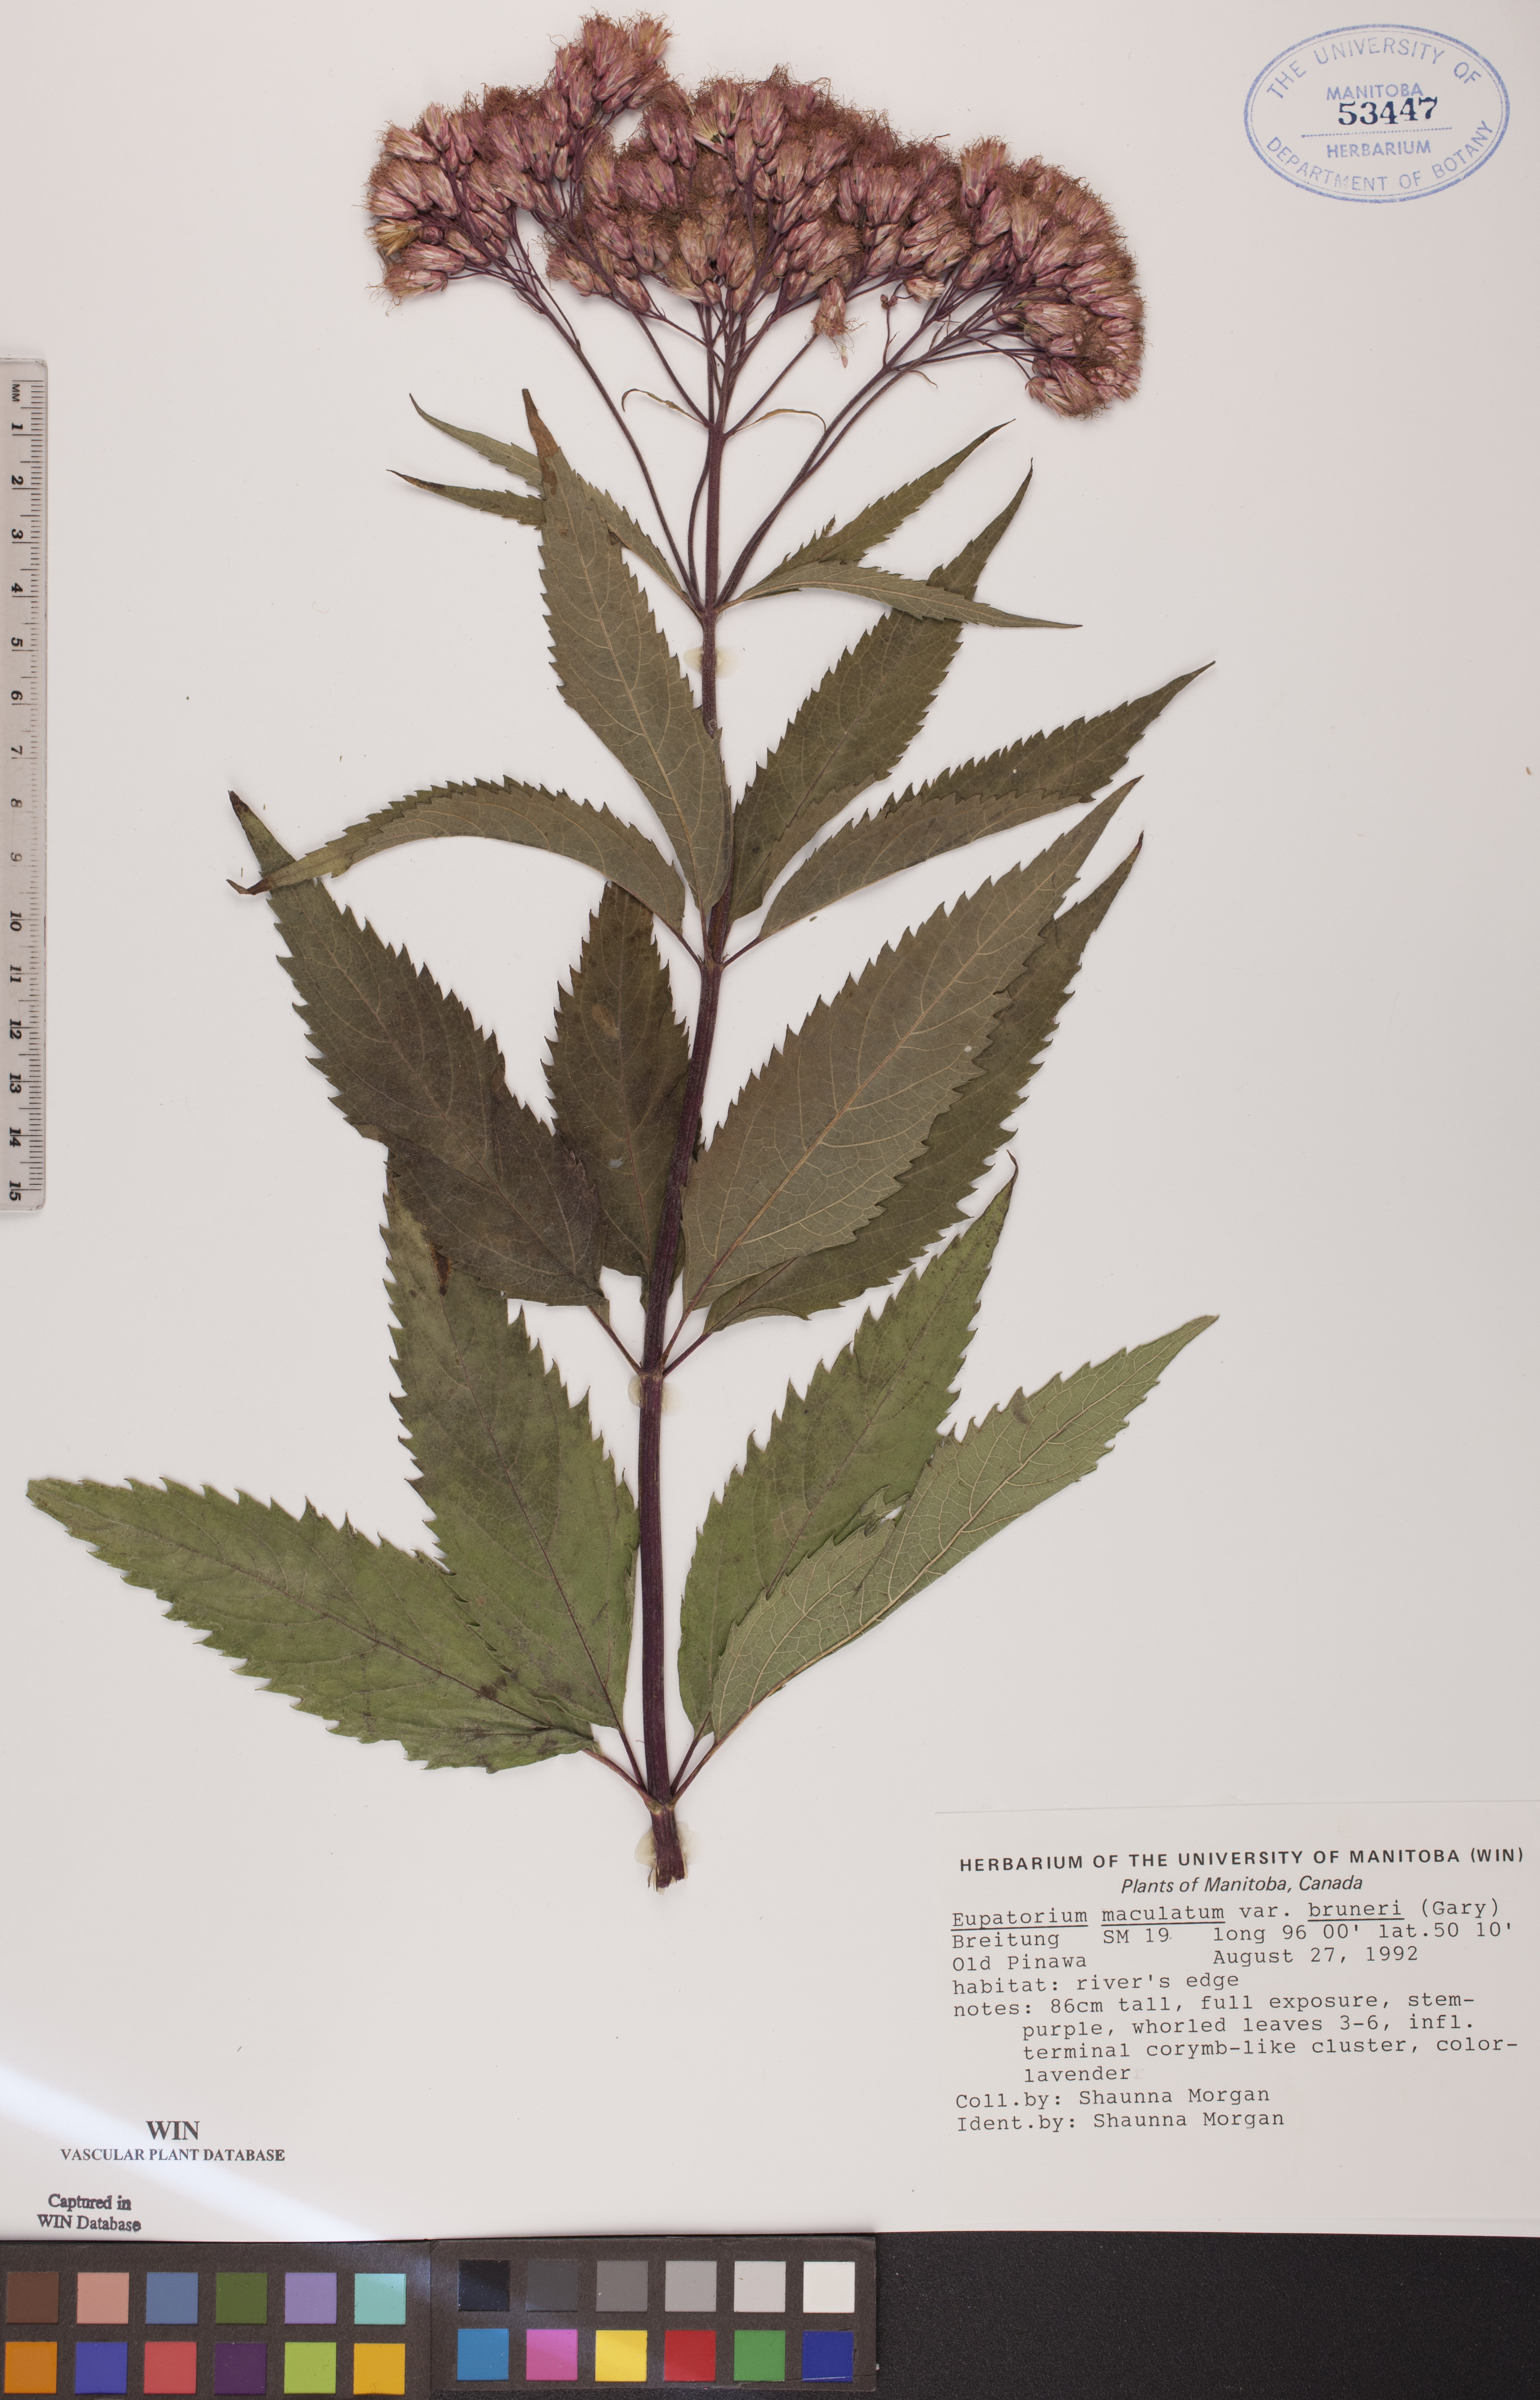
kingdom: Plantae
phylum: Tracheophyta
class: Magnoliopsida
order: Asterales
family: Asteraceae
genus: Eutrochium
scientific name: Eutrochium maculatum
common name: Spotted joe pye weed
